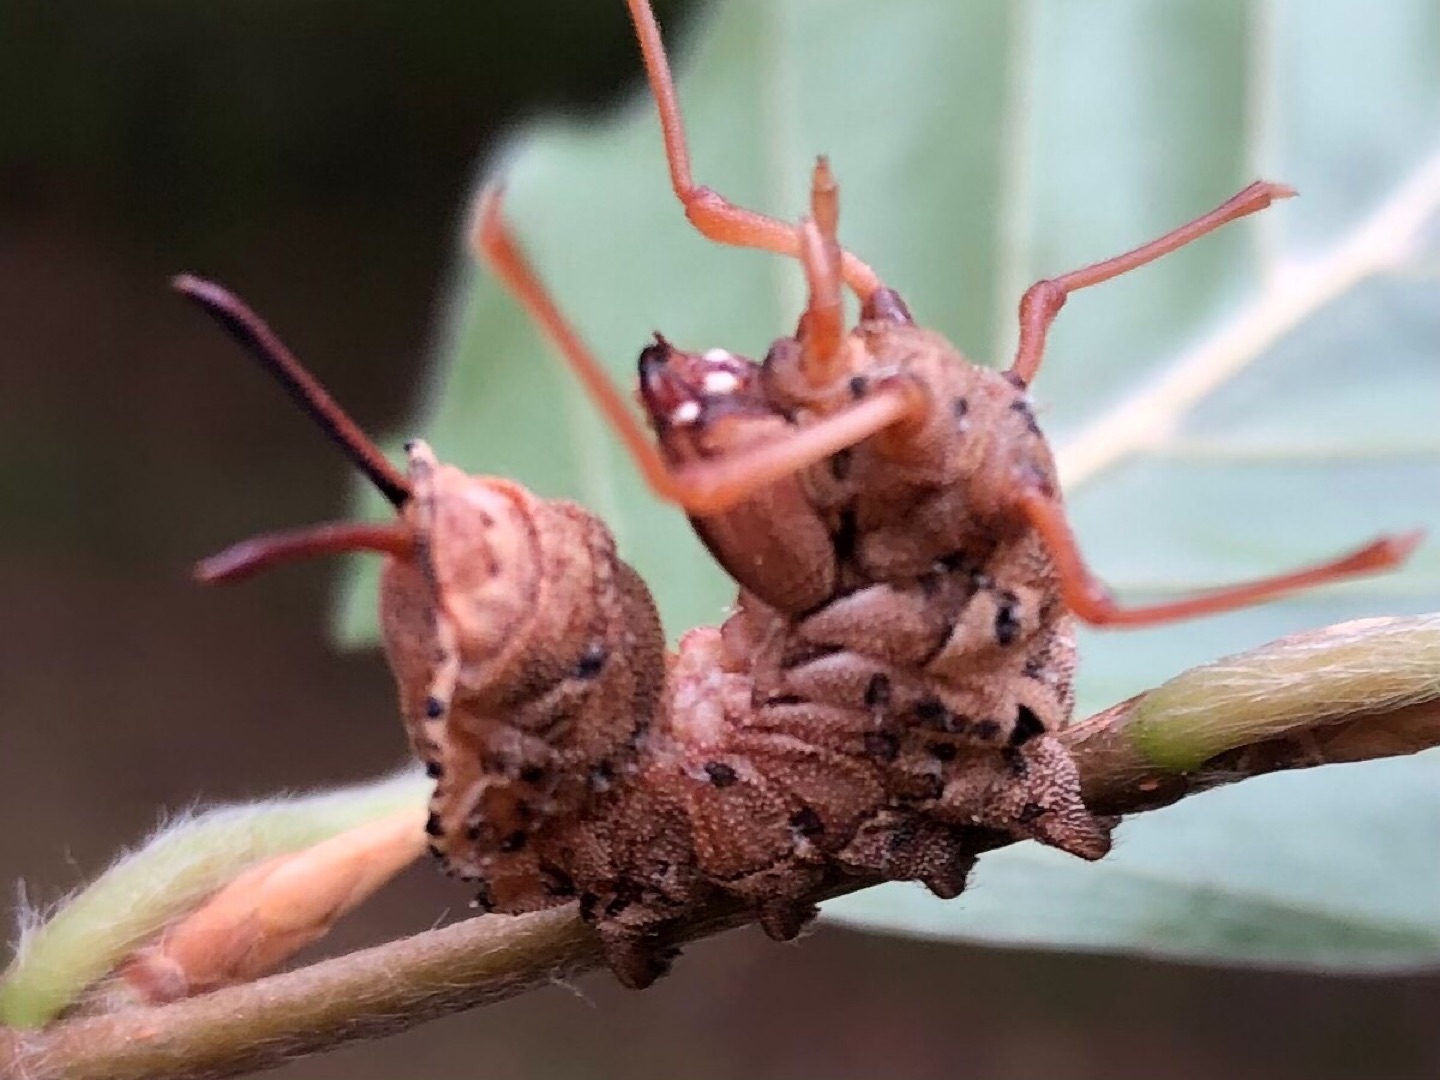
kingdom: Animalia
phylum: Arthropoda
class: Insecta
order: Lepidoptera
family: Notodontidae
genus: Stauropus
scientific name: Stauropus fagi
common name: Bøgespinder
